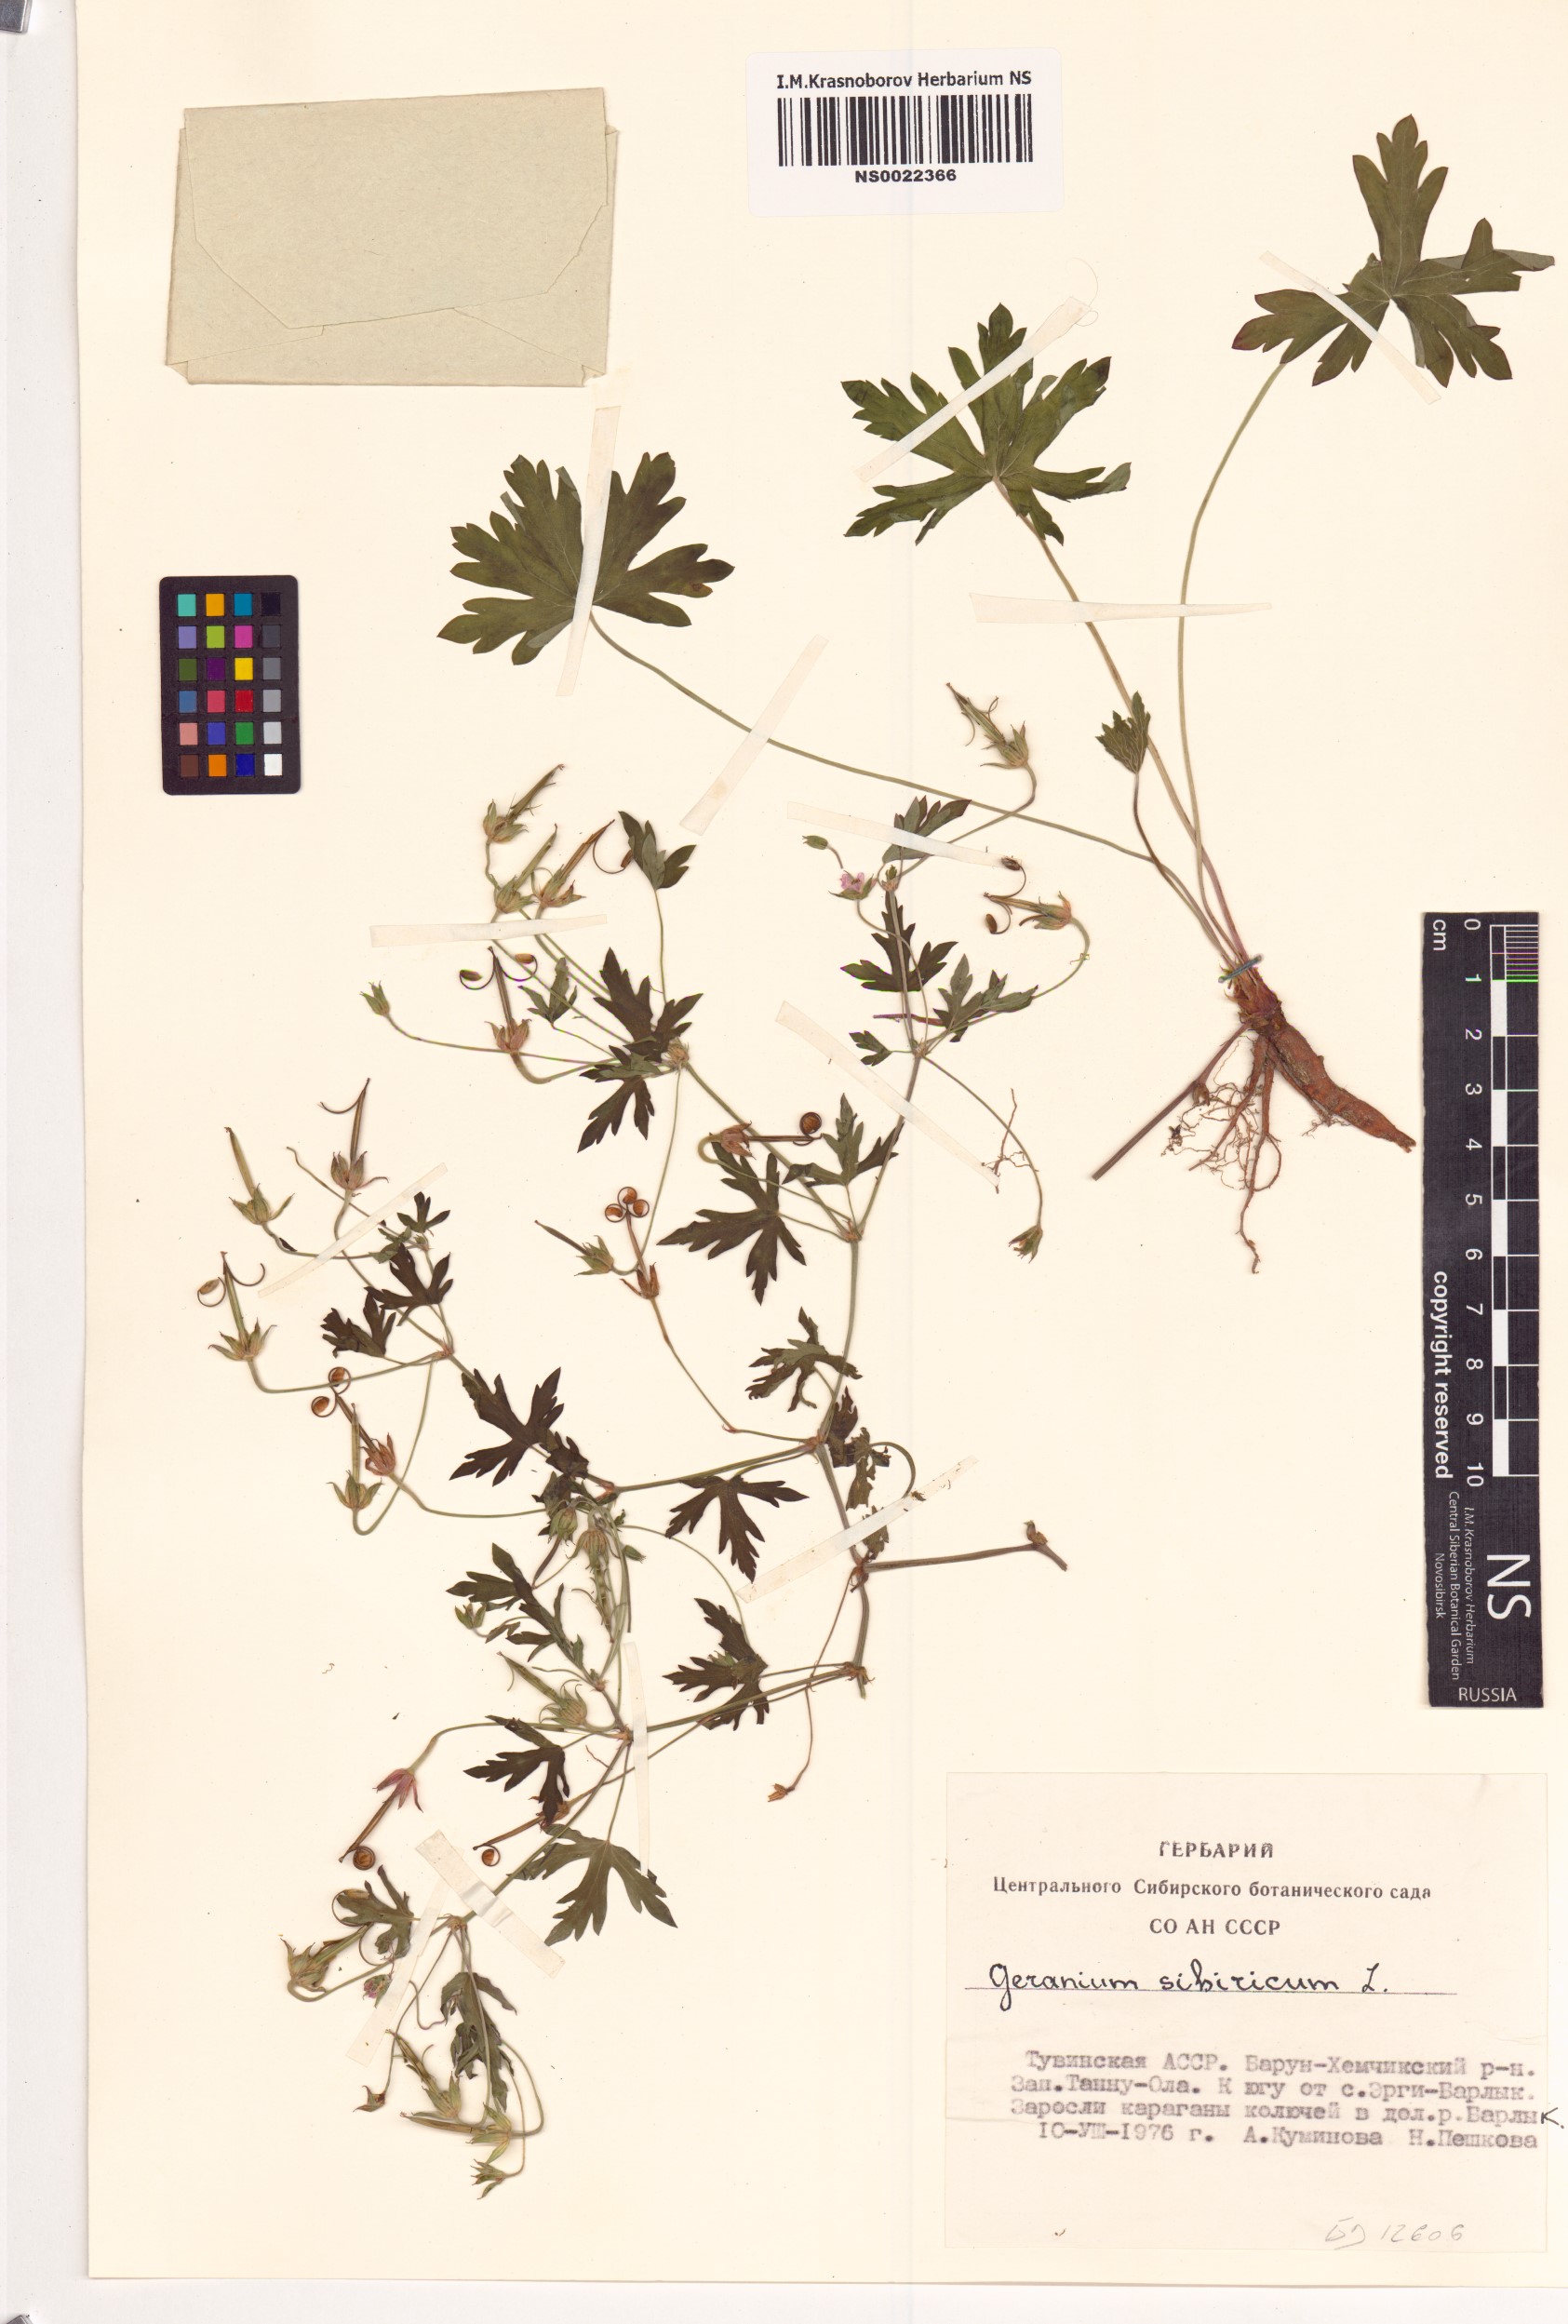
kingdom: Plantae
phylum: Tracheophyta
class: Magnoliopsida
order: Geraniales
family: Geraniaceae
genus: Geranium
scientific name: Geranium sibiricum
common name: Siberian crane's-bill
